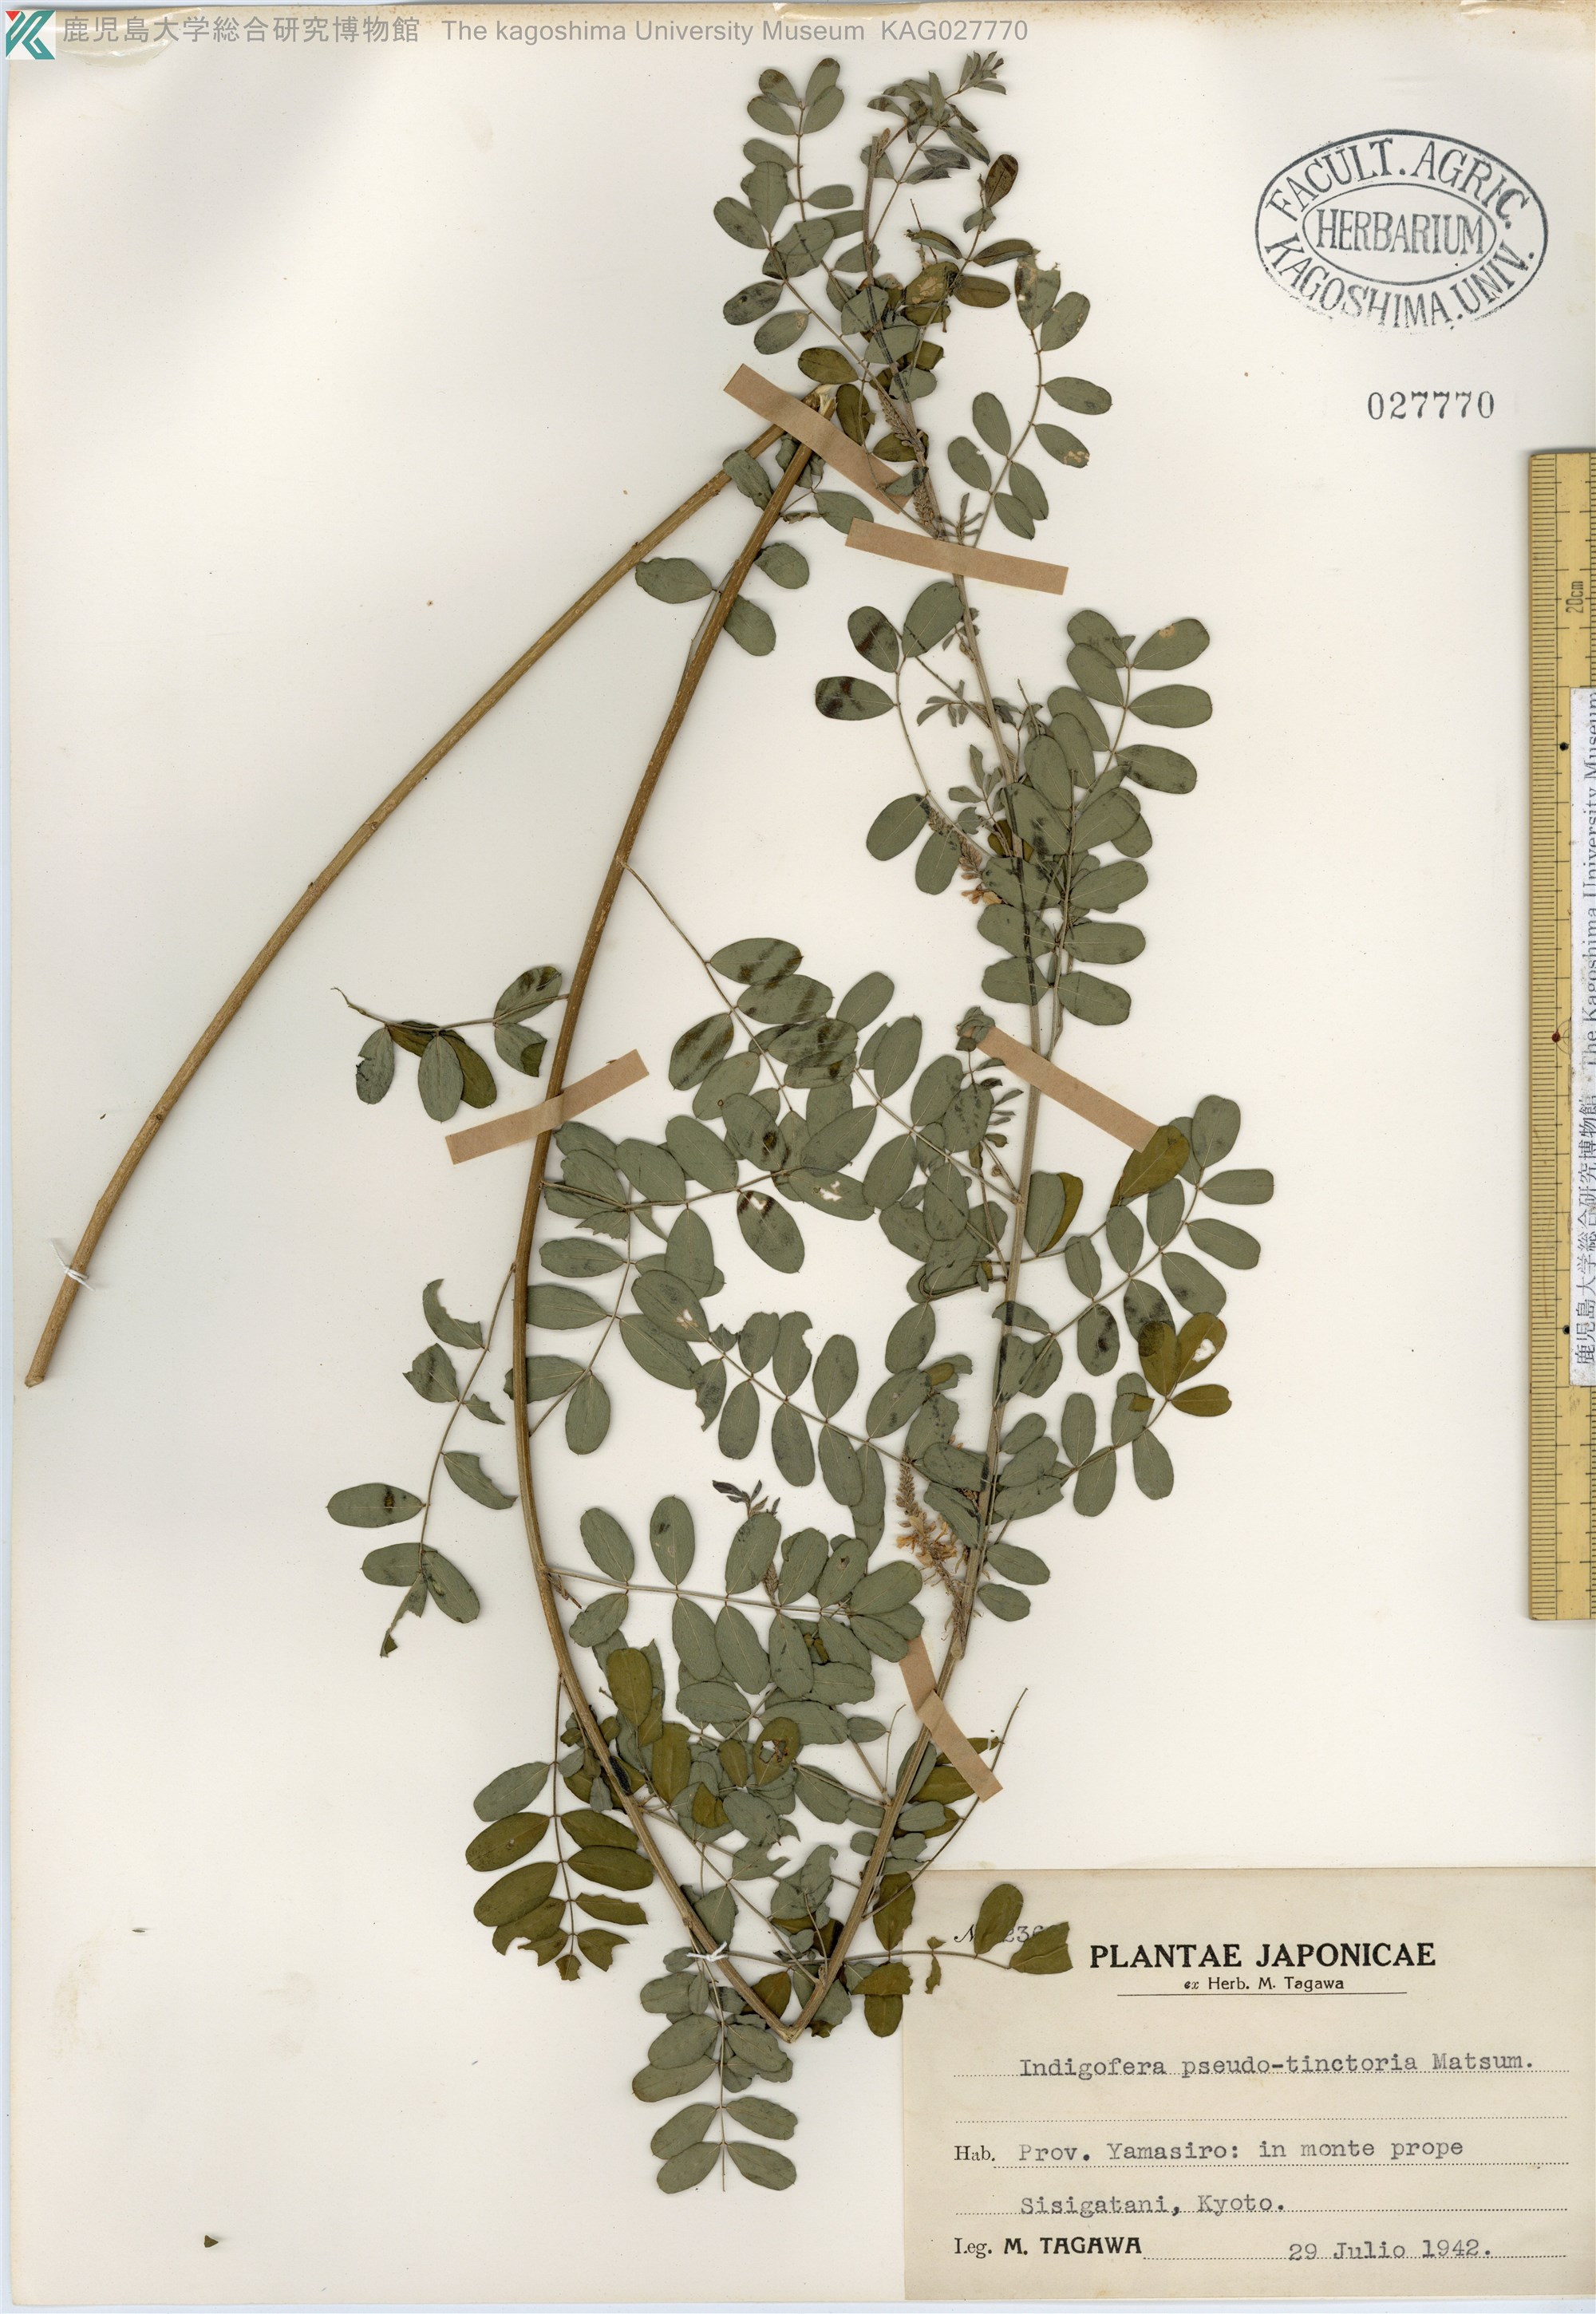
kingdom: Plantae
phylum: Tracheophyta
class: Magnoliopsida
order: Fabales
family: Fabaceae
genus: Indigofera
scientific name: Indigofera bungeana
